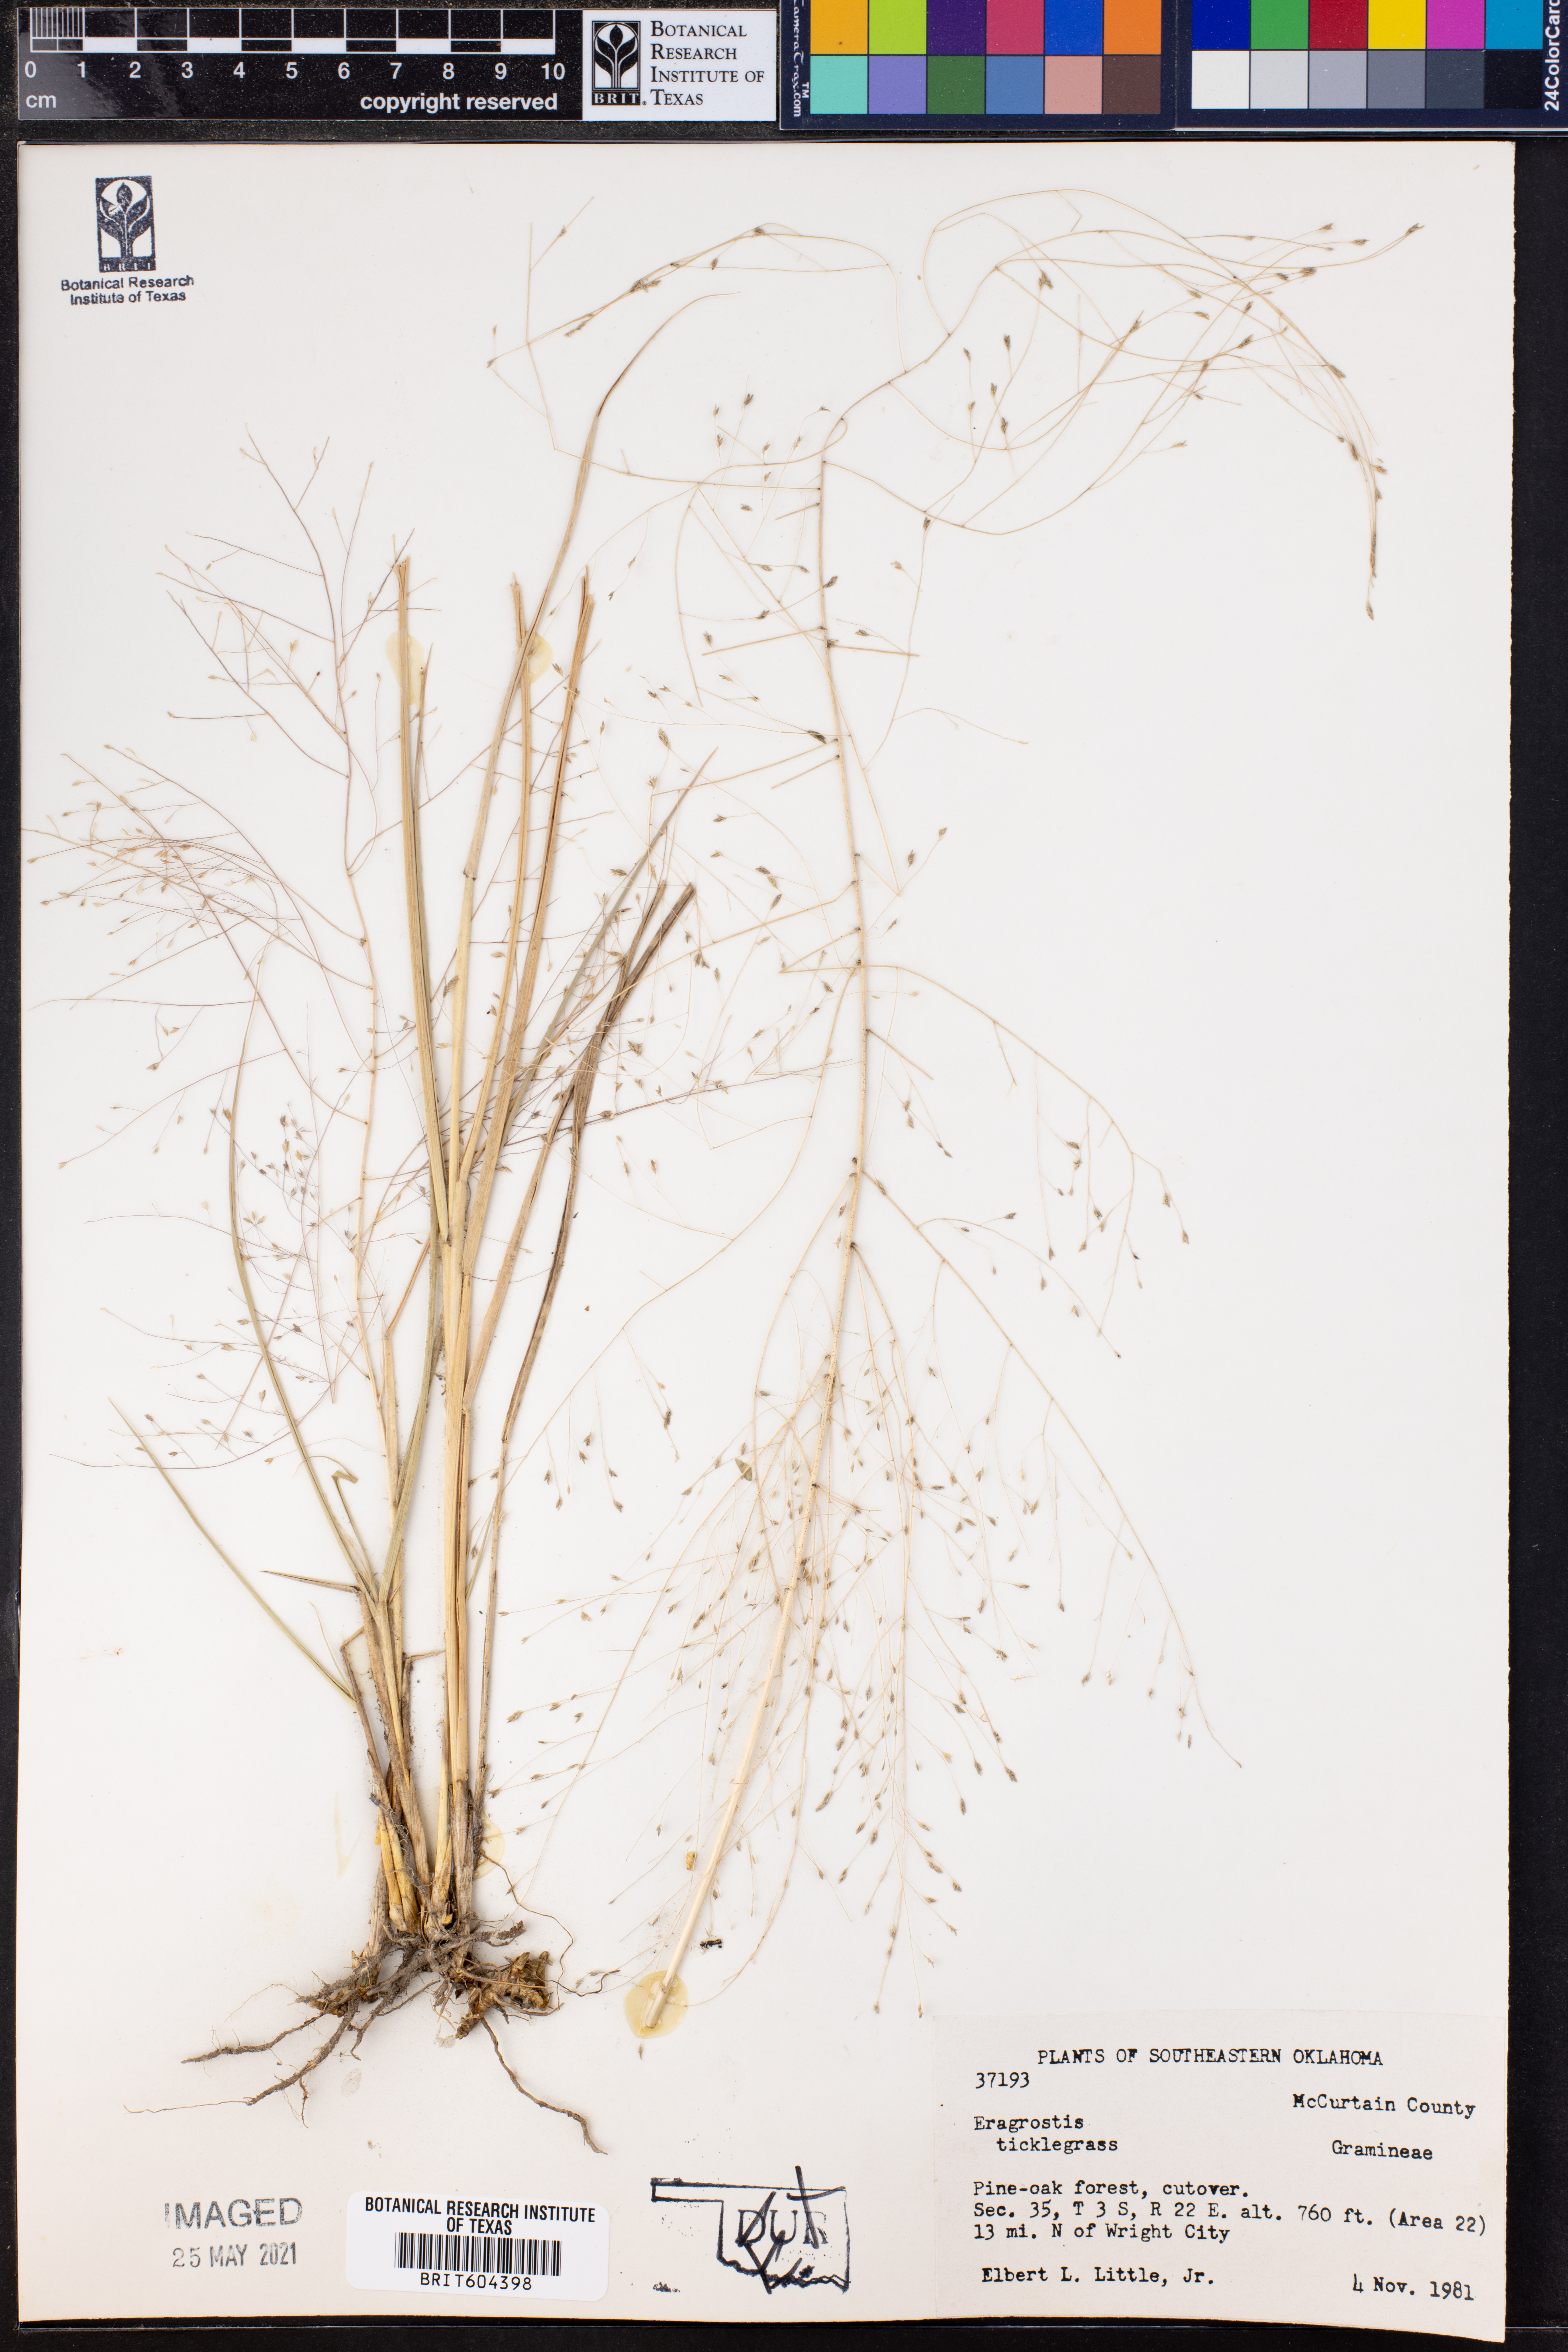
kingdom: Plantae
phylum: Tracheophyta
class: Liliopsida
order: Poales
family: Poaceae
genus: Eragrostis
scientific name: Eragrostis
